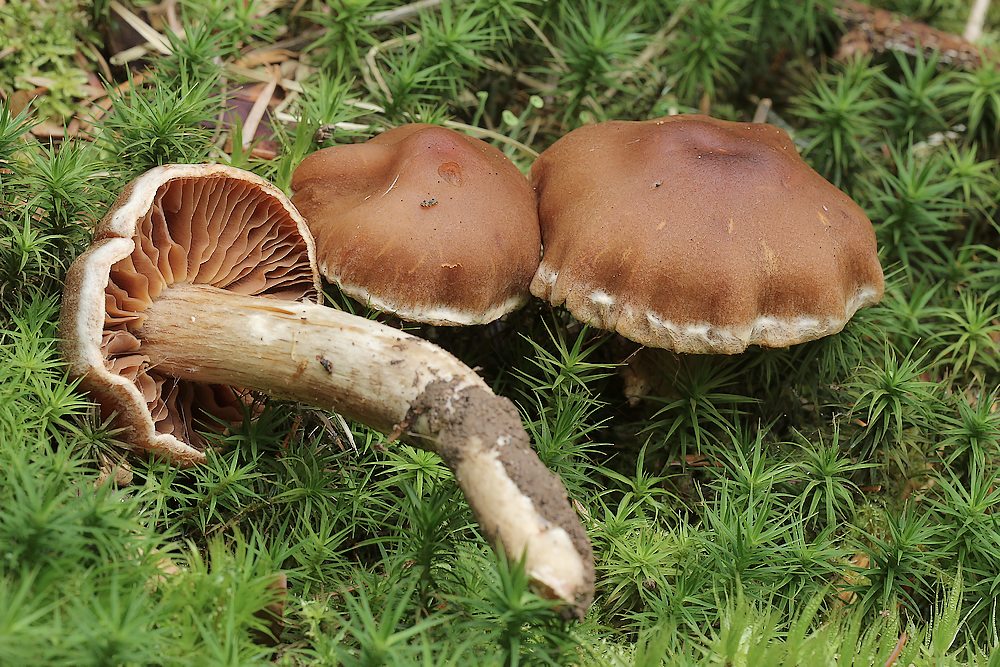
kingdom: Fungi
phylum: Basidiomycota
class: Agaricomycetes
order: Agaricales
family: Cortinariaceae
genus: Cortinarius
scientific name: Cortinarius
